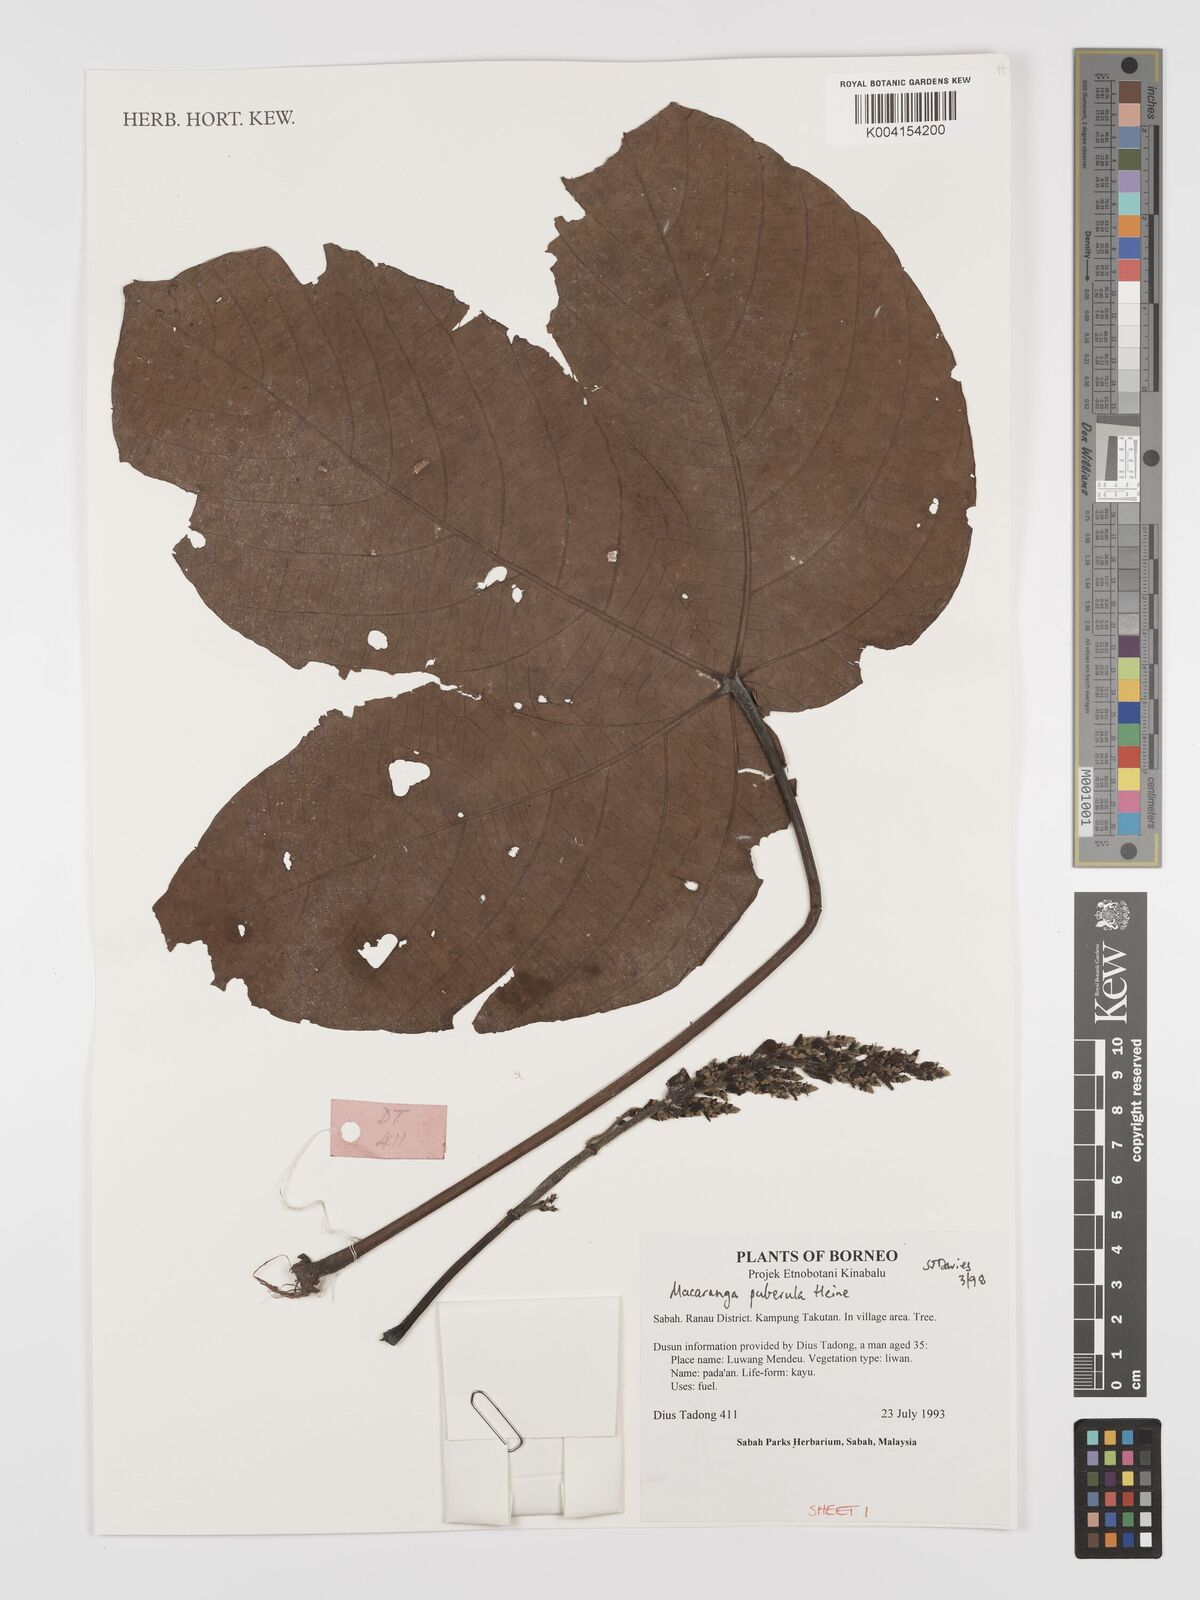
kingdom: Plantae
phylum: Tracheophyta
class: Magnoliopsida
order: Malpighiales
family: Euphorbiaceae
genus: Macaranga
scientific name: Macaranga puberula
